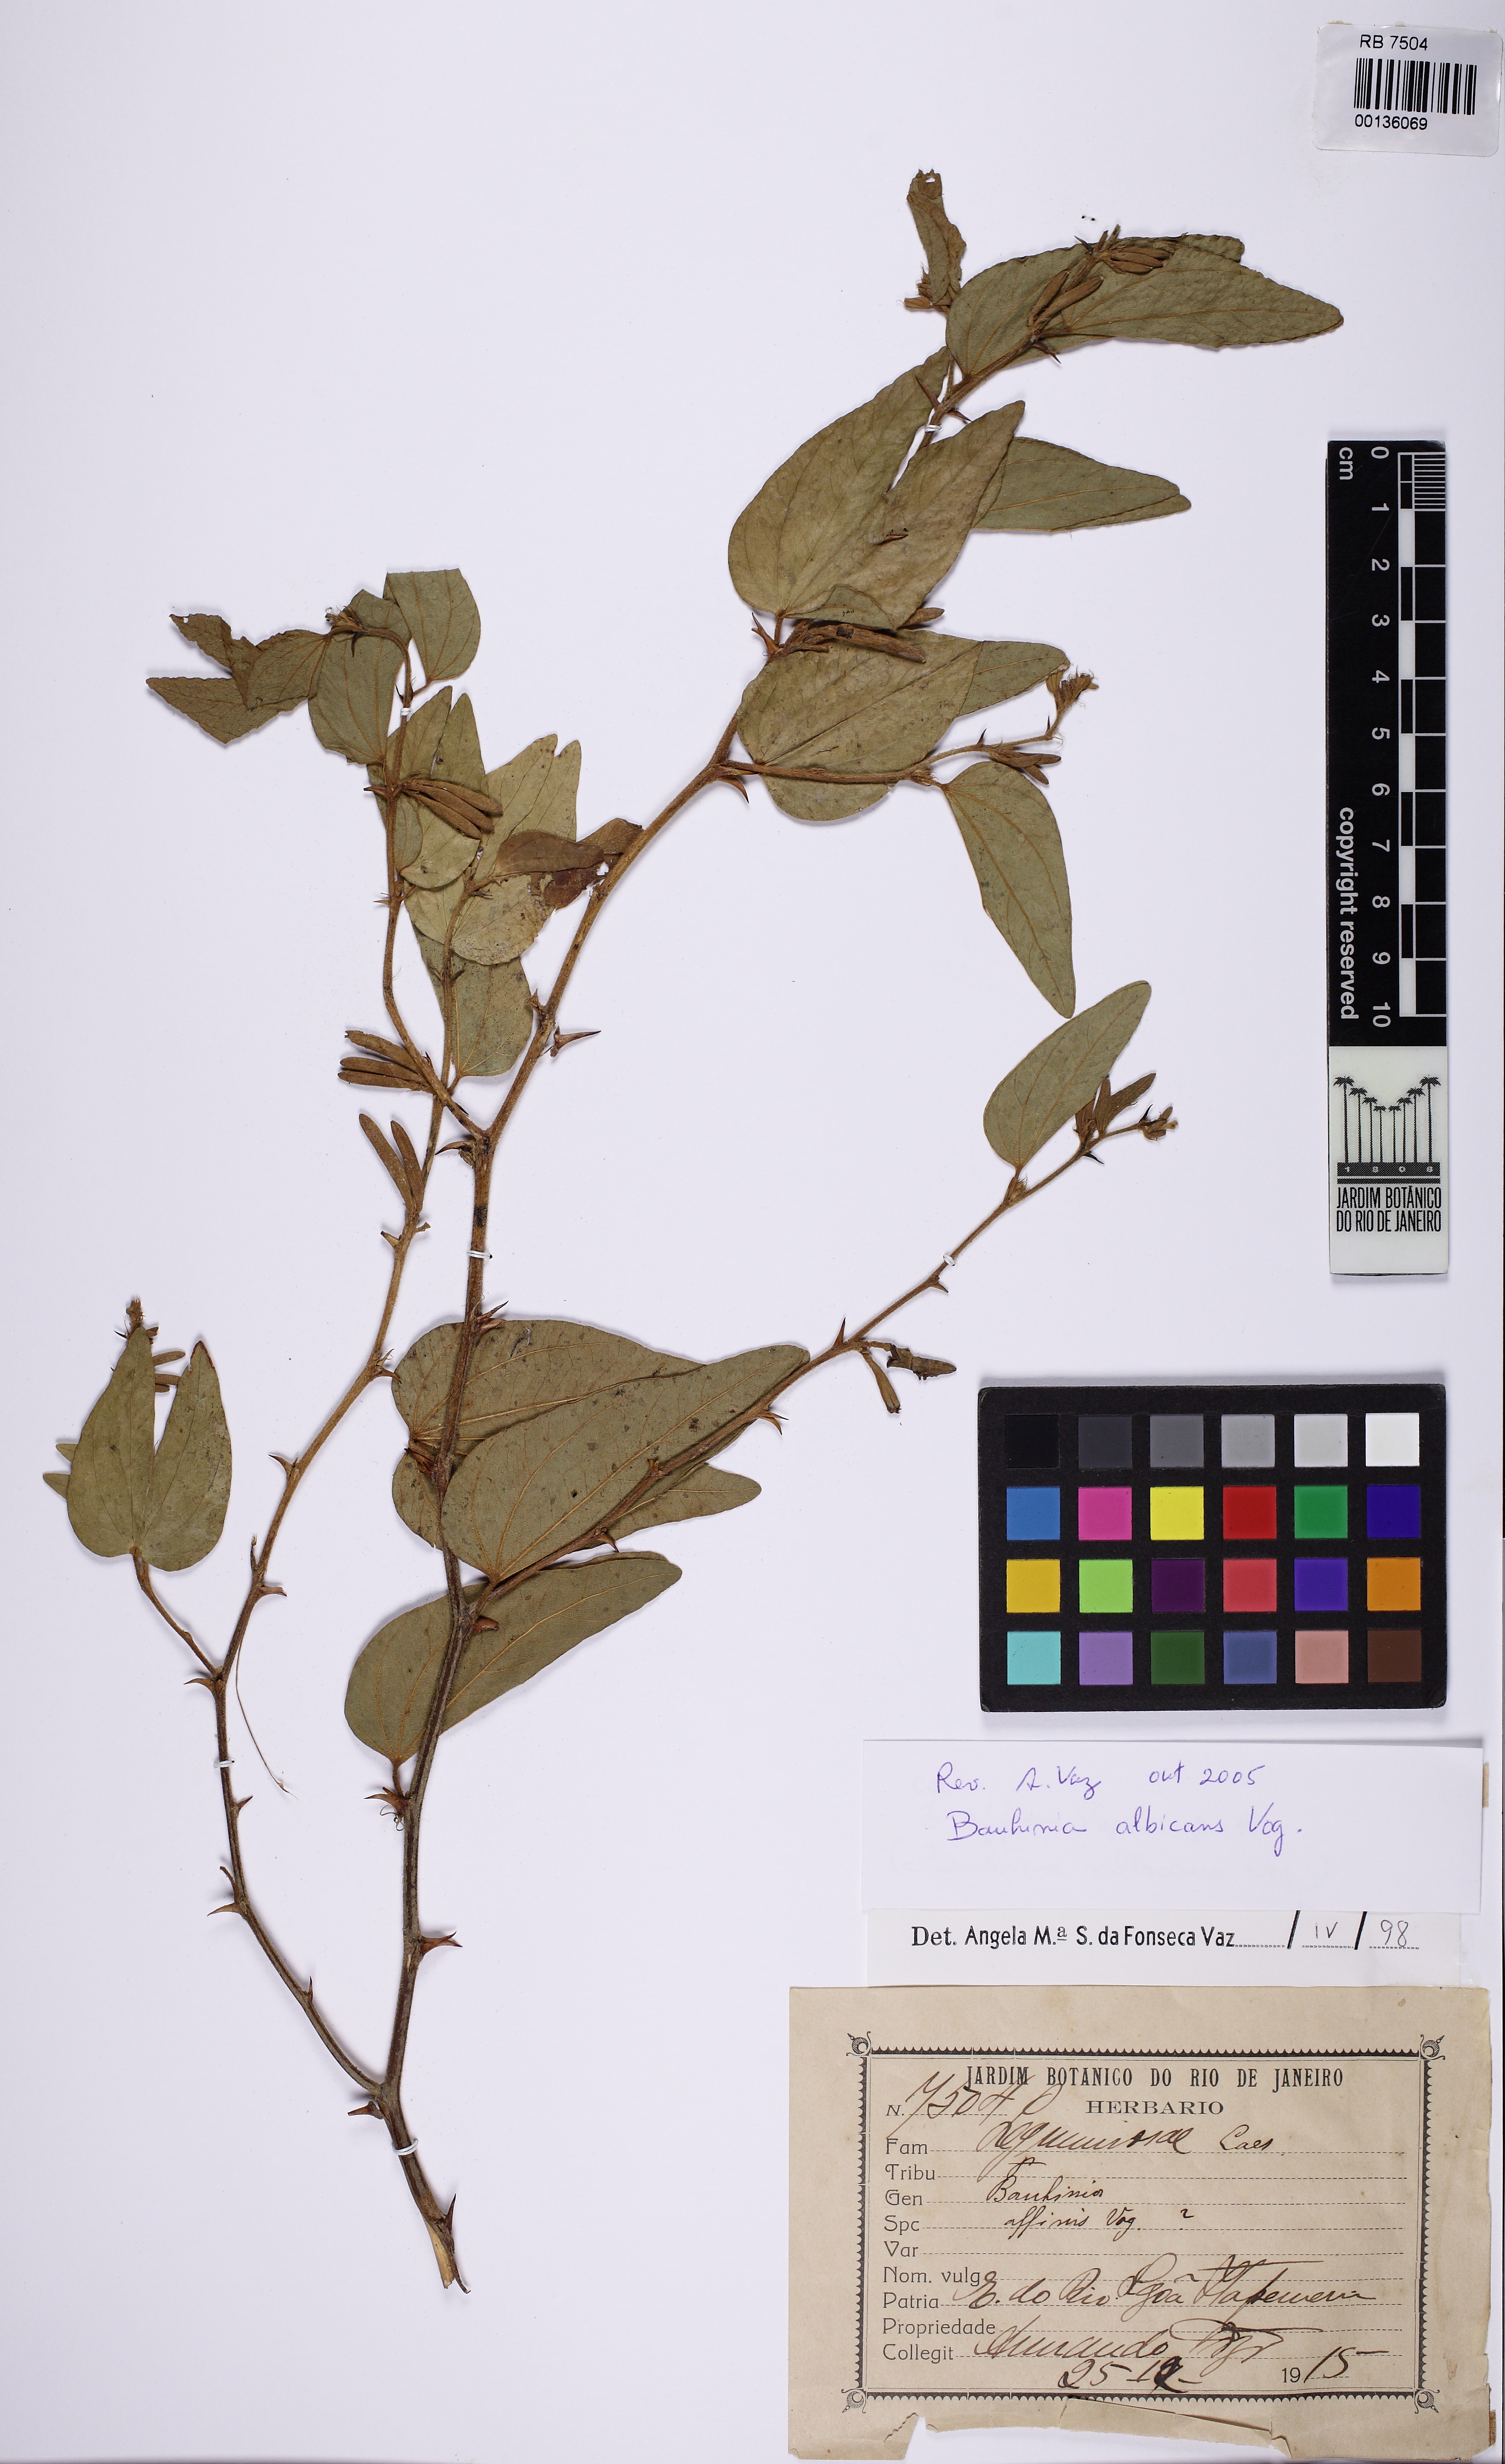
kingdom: Plantae
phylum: Tracheophyta
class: Magnoliopsida
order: Fabales
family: Fabaceae
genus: Bauhinia
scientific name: Bauhinia albicans
